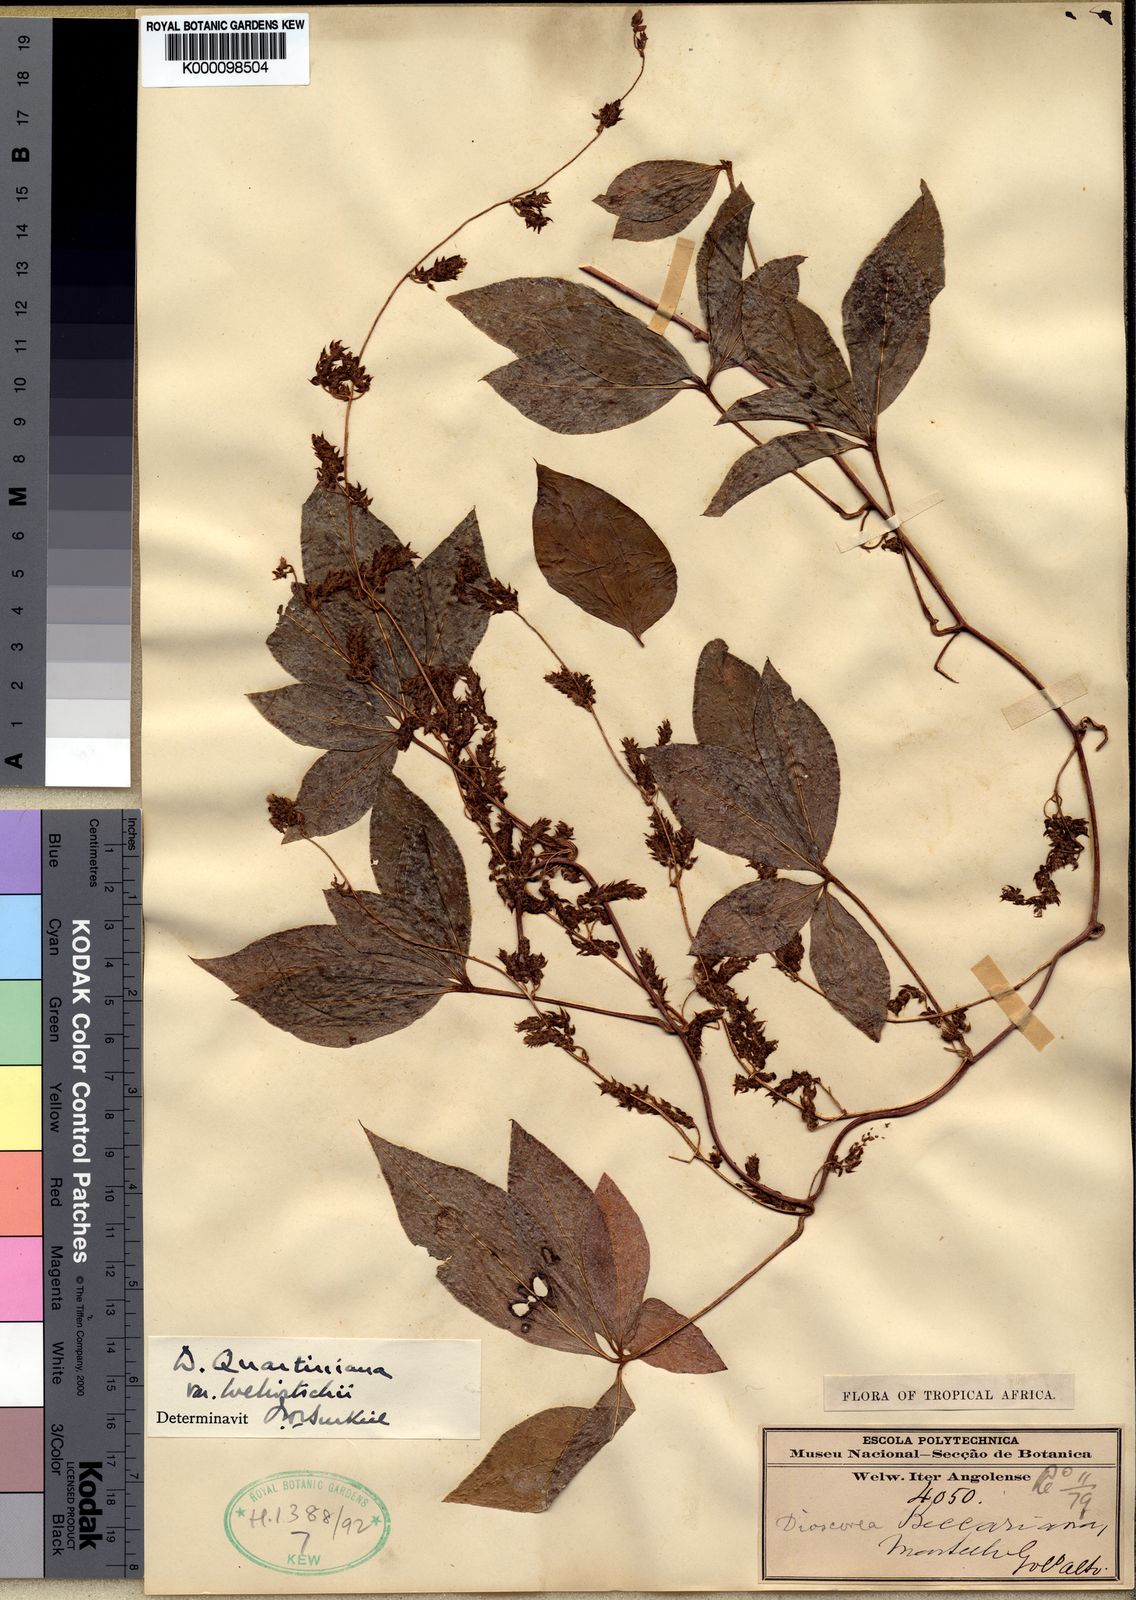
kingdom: Plantae
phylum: Tracheophyta
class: Liliopsida
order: Dioscoreales
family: Dioscoreaceae
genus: Dioscorea
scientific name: Dioscorea quartiniana
